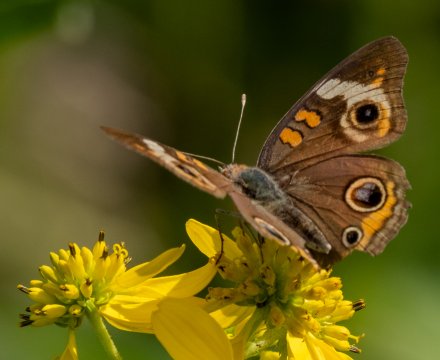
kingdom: Animalia
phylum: Arthropoda
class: Insecta
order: Lepidoptera
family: Nymphalidae
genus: Junonia
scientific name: Junonia coenia
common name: Common Buckeye
